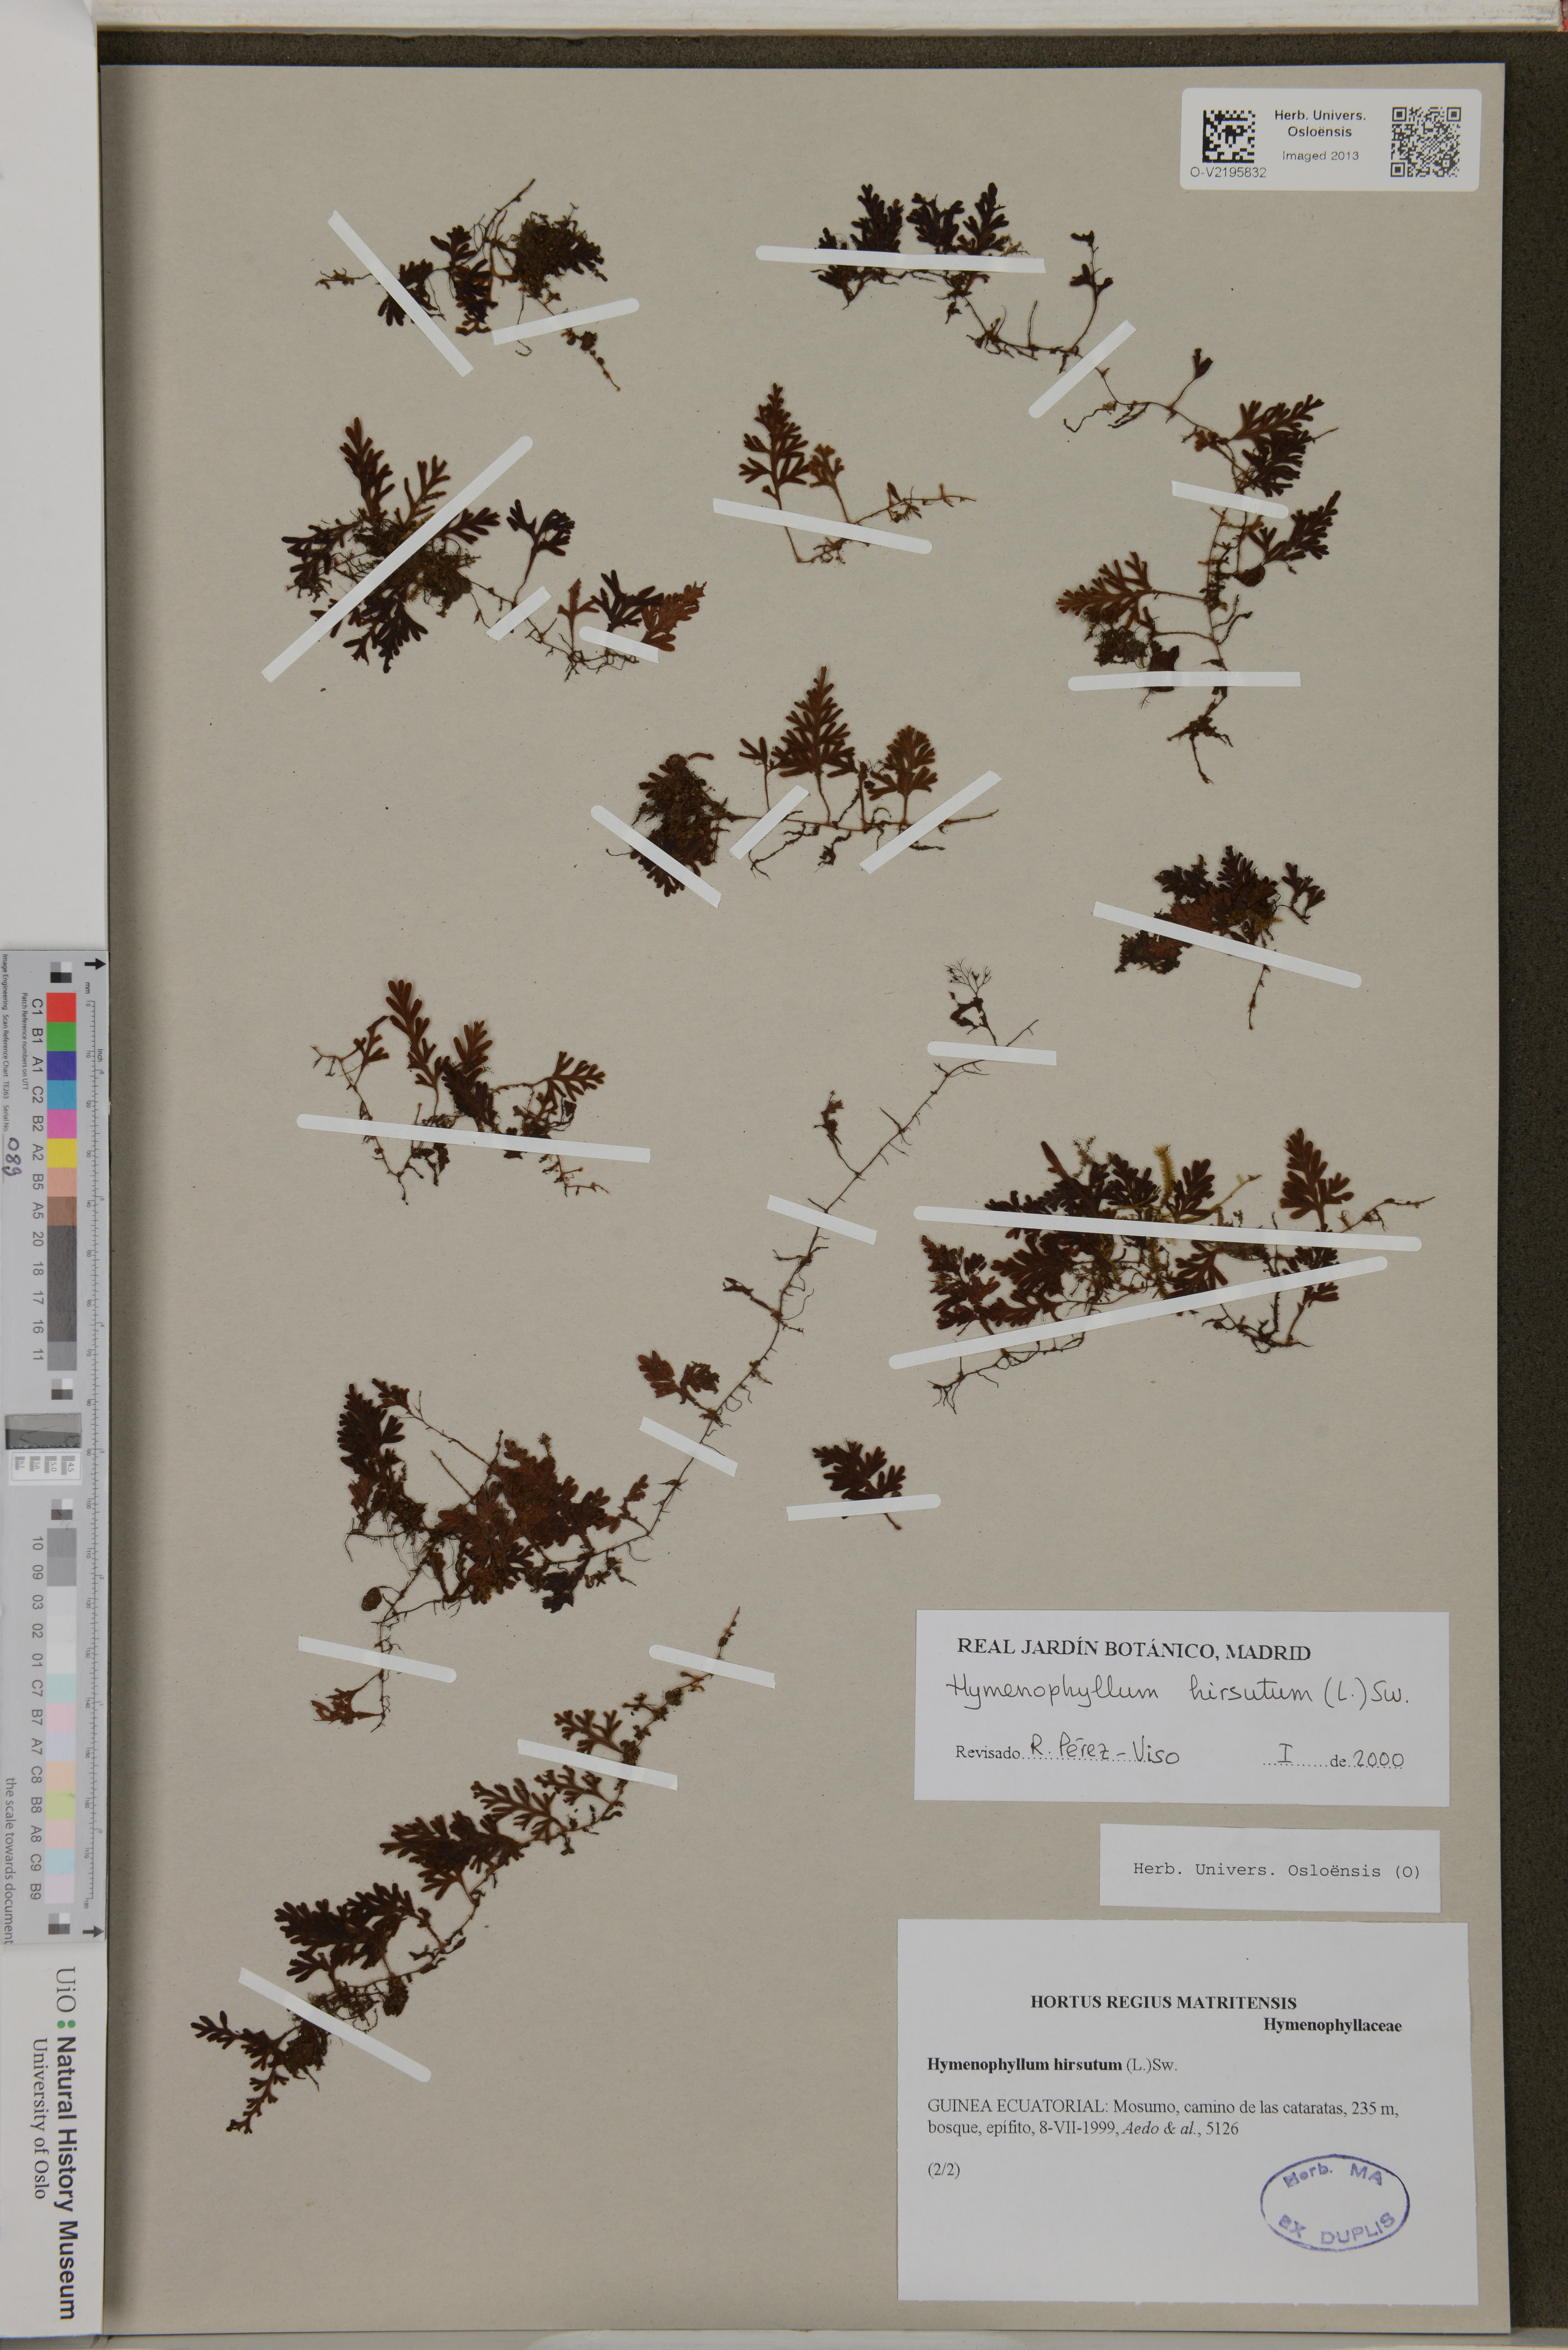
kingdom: Plantae
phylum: Tracheophyta
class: Polypodiopsida
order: Hymenophyllales
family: Hymenophyllaceae
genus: Hymenophyllum
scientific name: Hymenophyllum hirsutum
